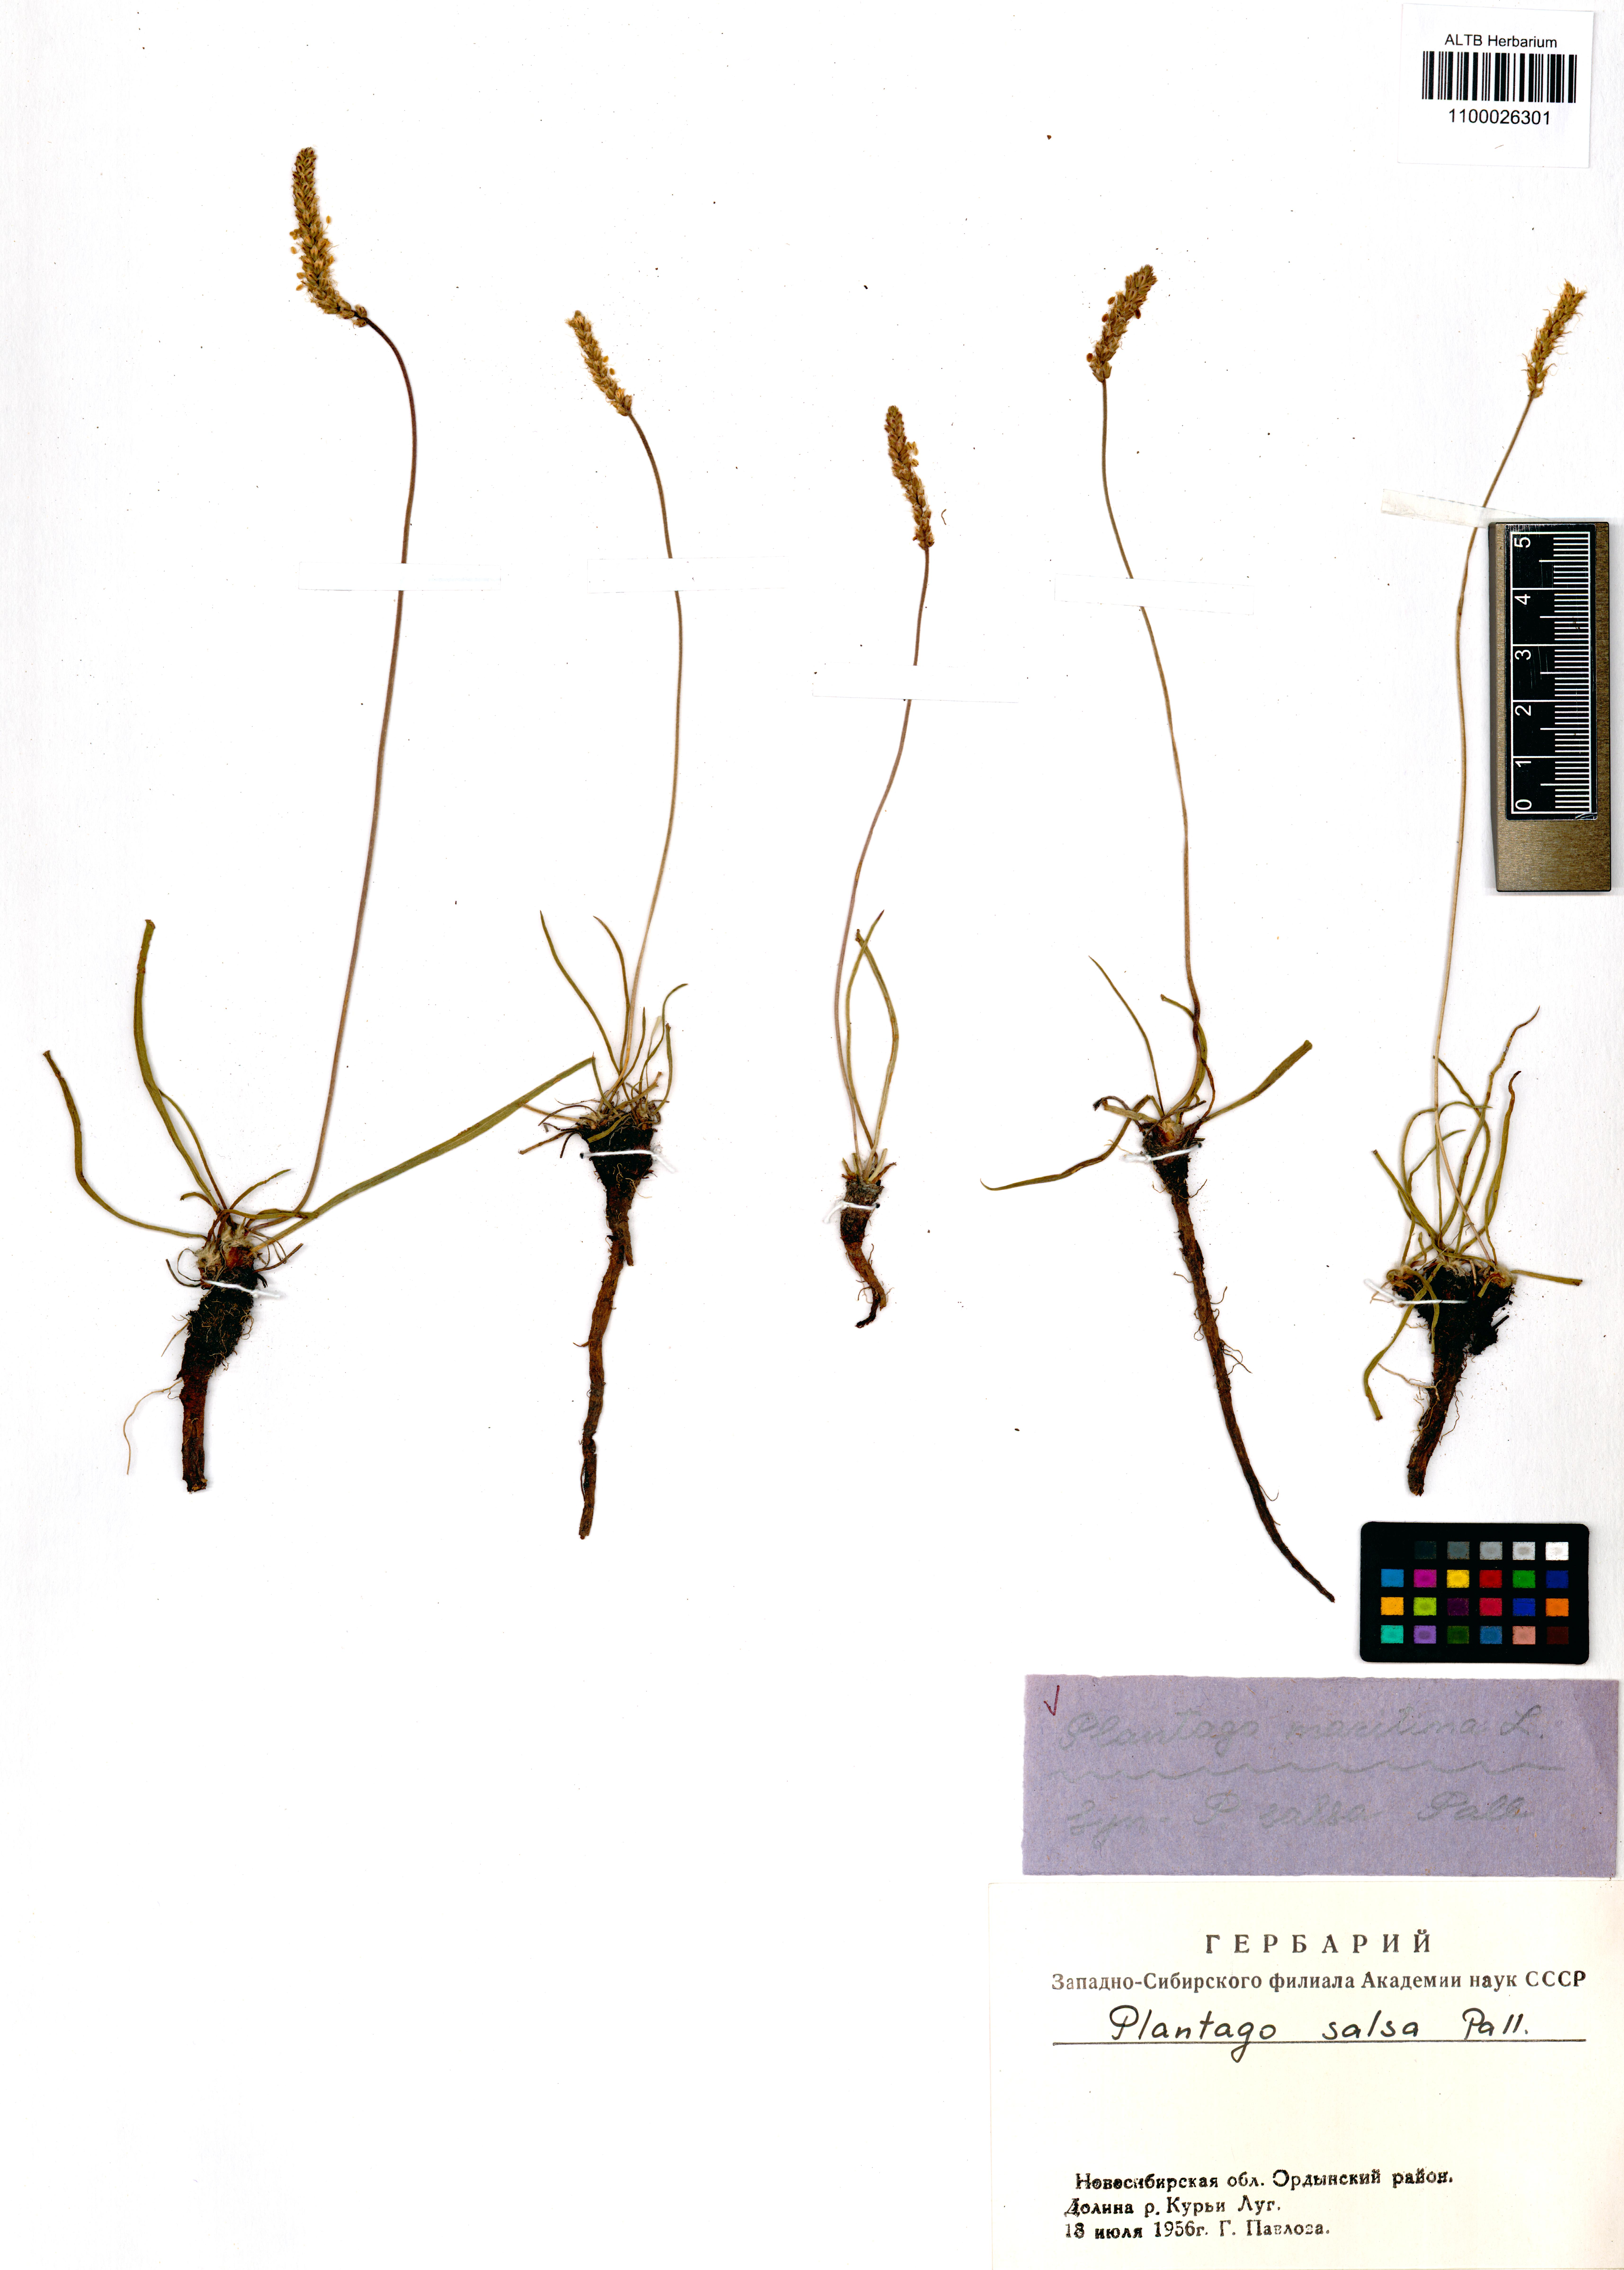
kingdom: Plantae
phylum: Tracheophyta
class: Magnoliopsida
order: Lamiales
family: Plantaginaceae
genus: Plantago
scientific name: Plantago maritima
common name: Sea plantain
